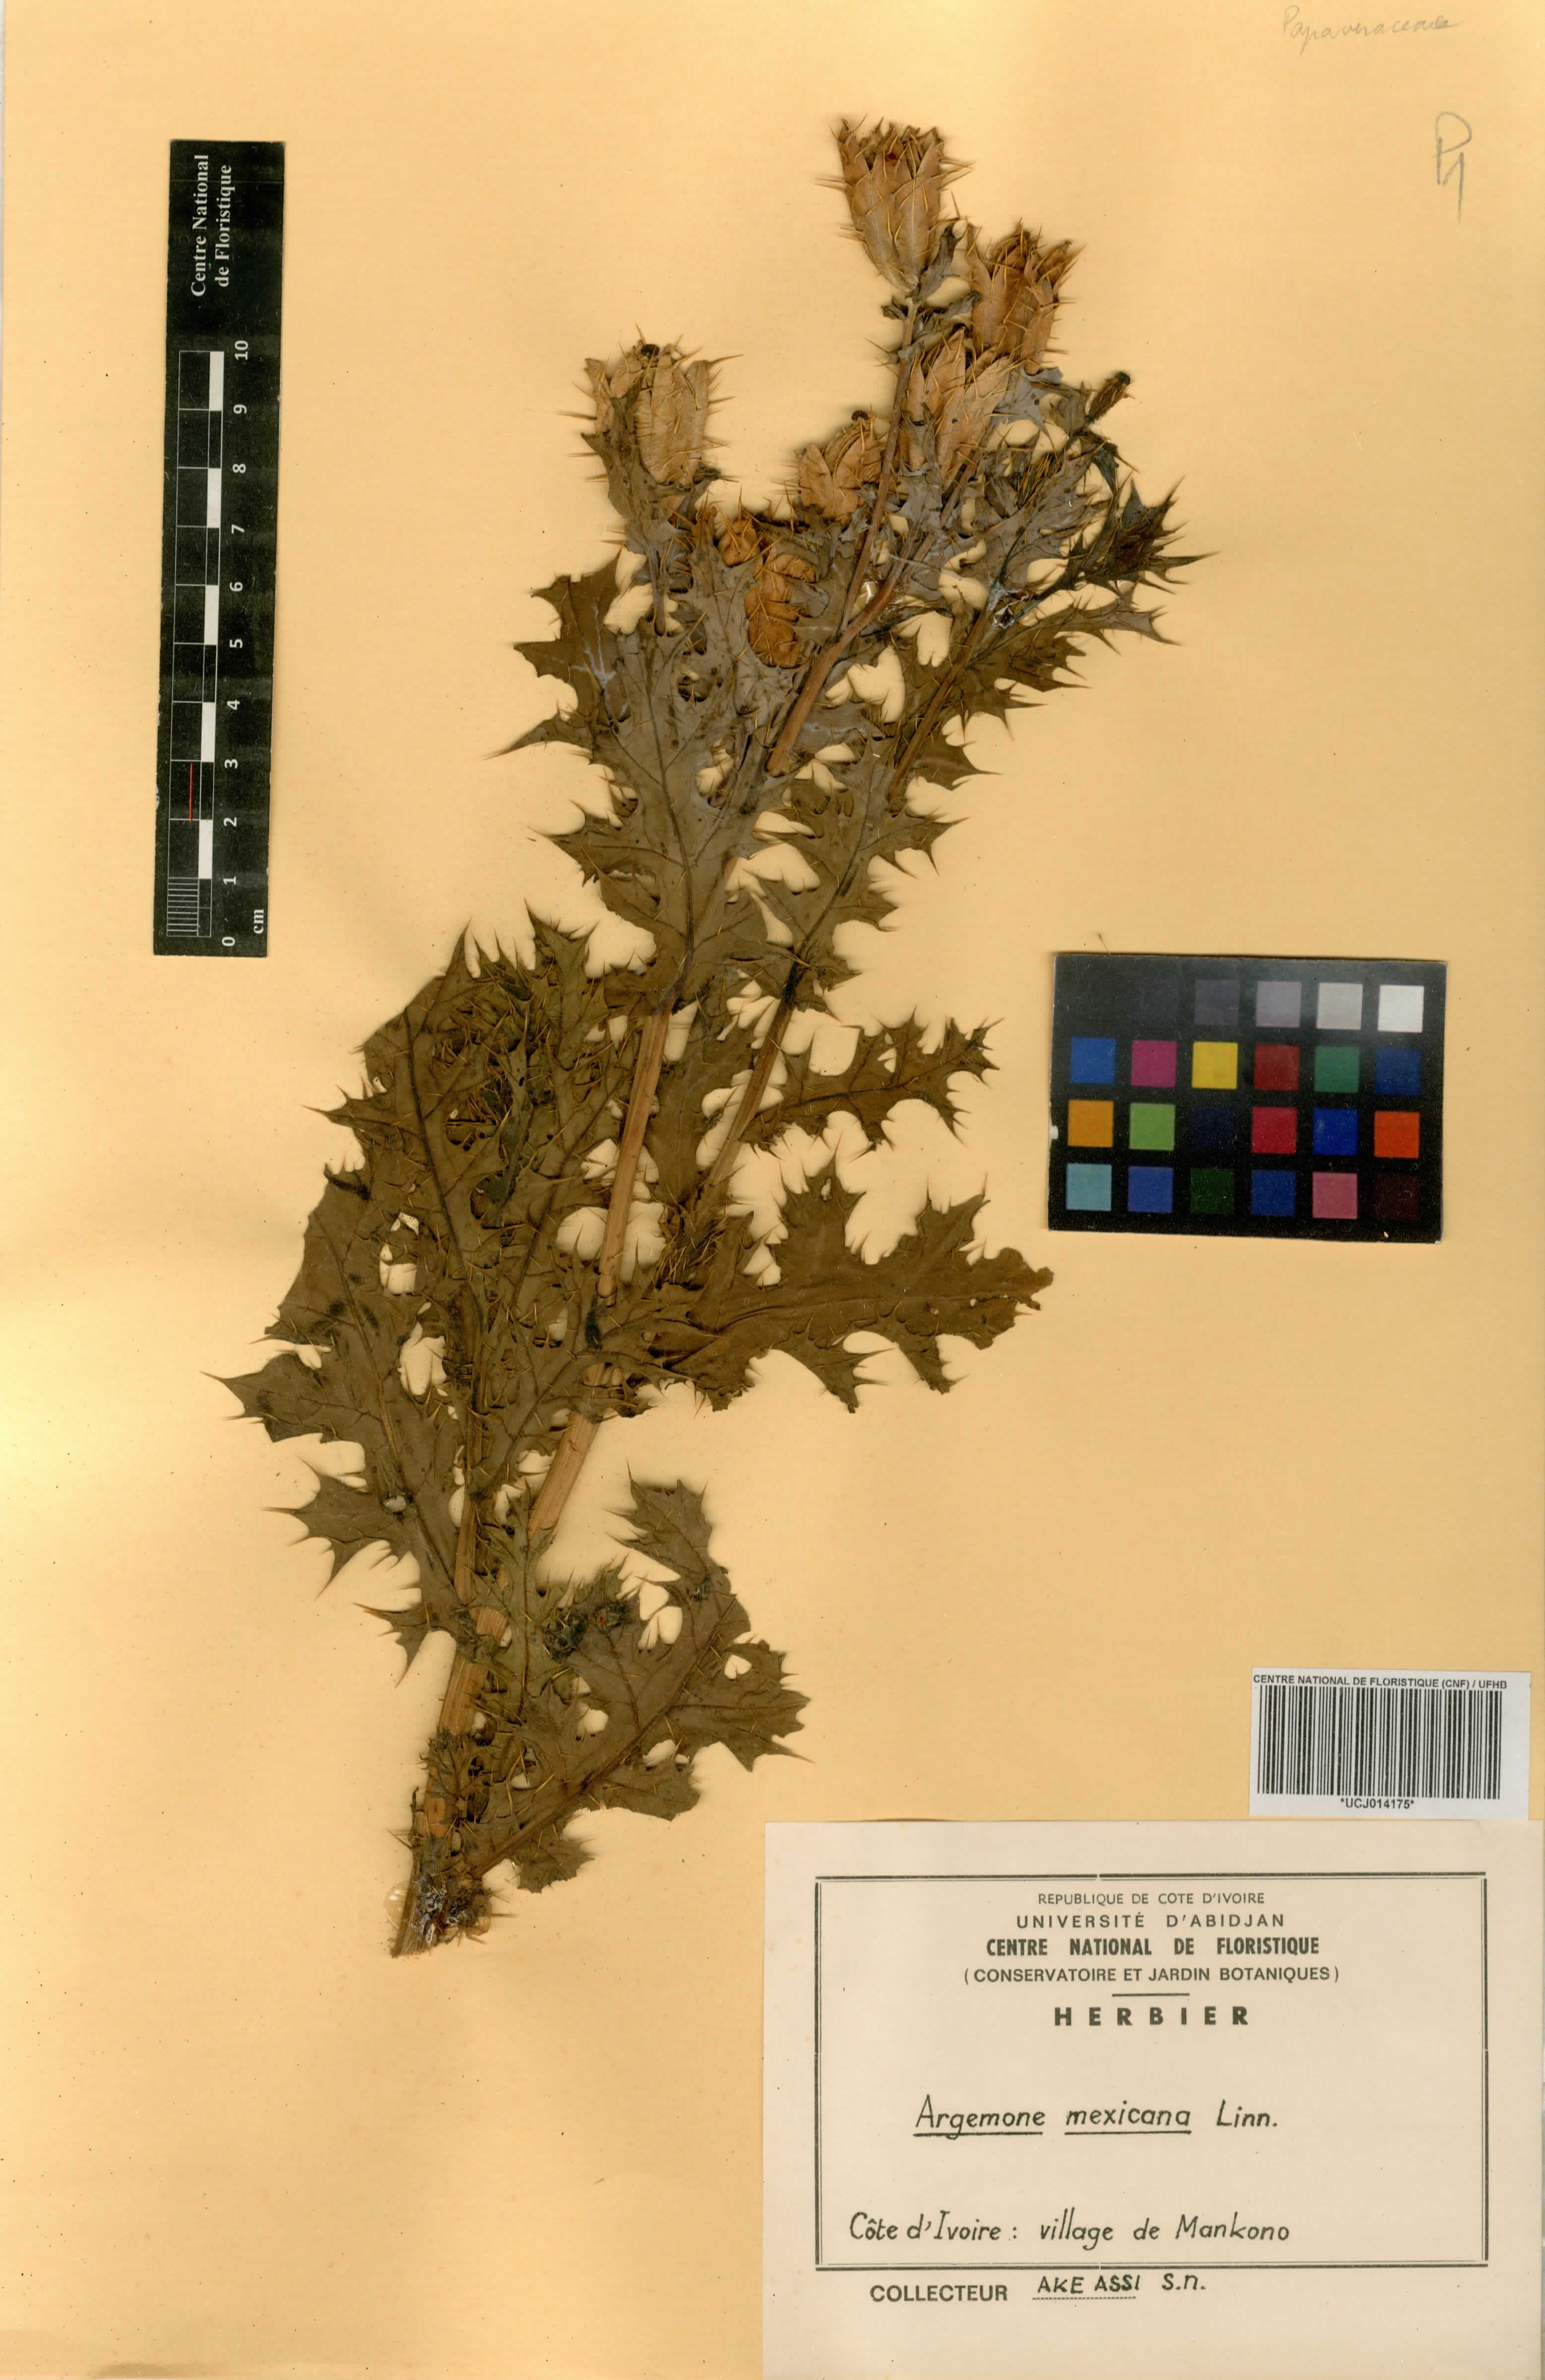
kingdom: Plantae
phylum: Tracheophyta
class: Magnoliopsida
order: Ranunculales
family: Papaveraceae
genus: Argemone
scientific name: Argemone mexicana
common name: Mexican poppy
